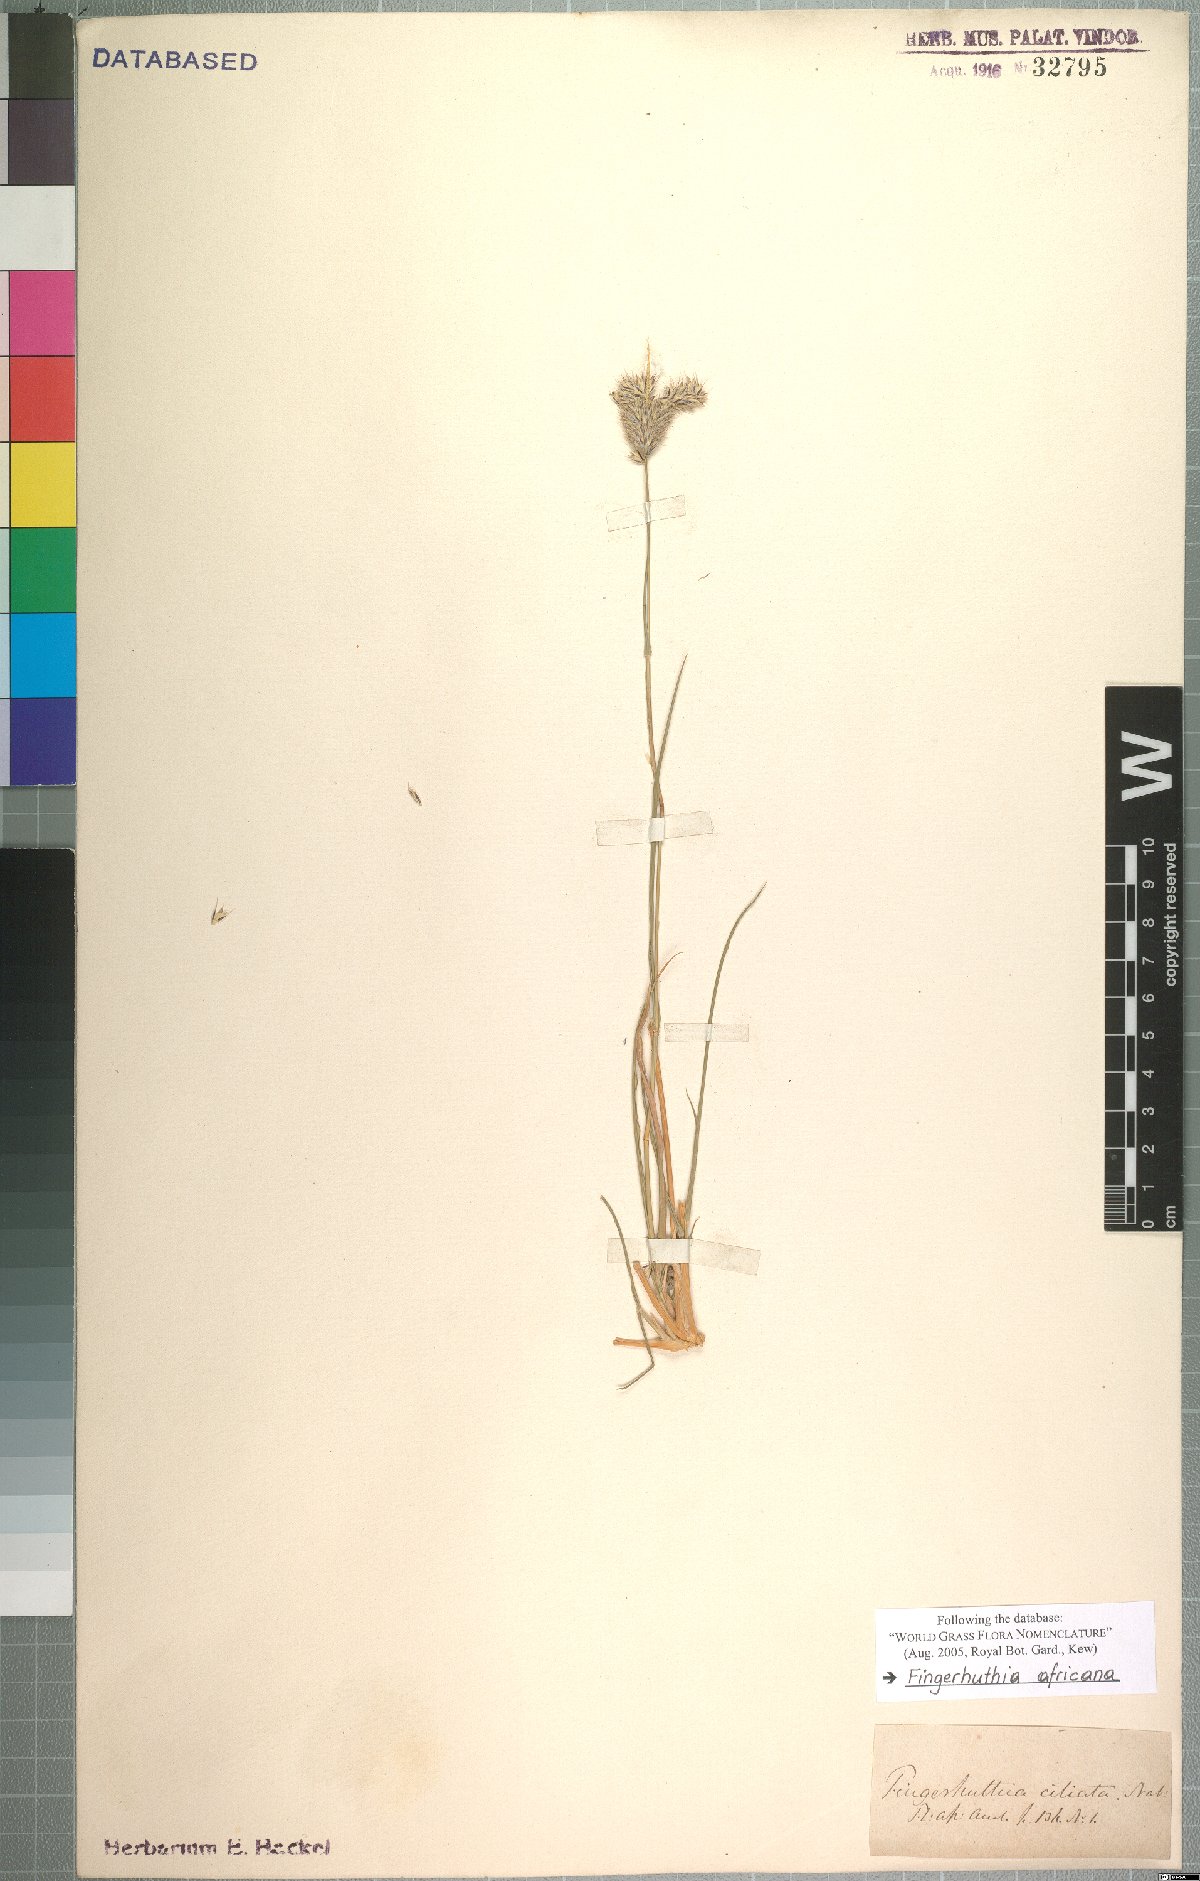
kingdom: Plantae
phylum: Tracheophyta
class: Liliopsida
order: Poales
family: Poaceae
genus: Fingerhuthia
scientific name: Fingerhuthia africana
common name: Zulu fescue
